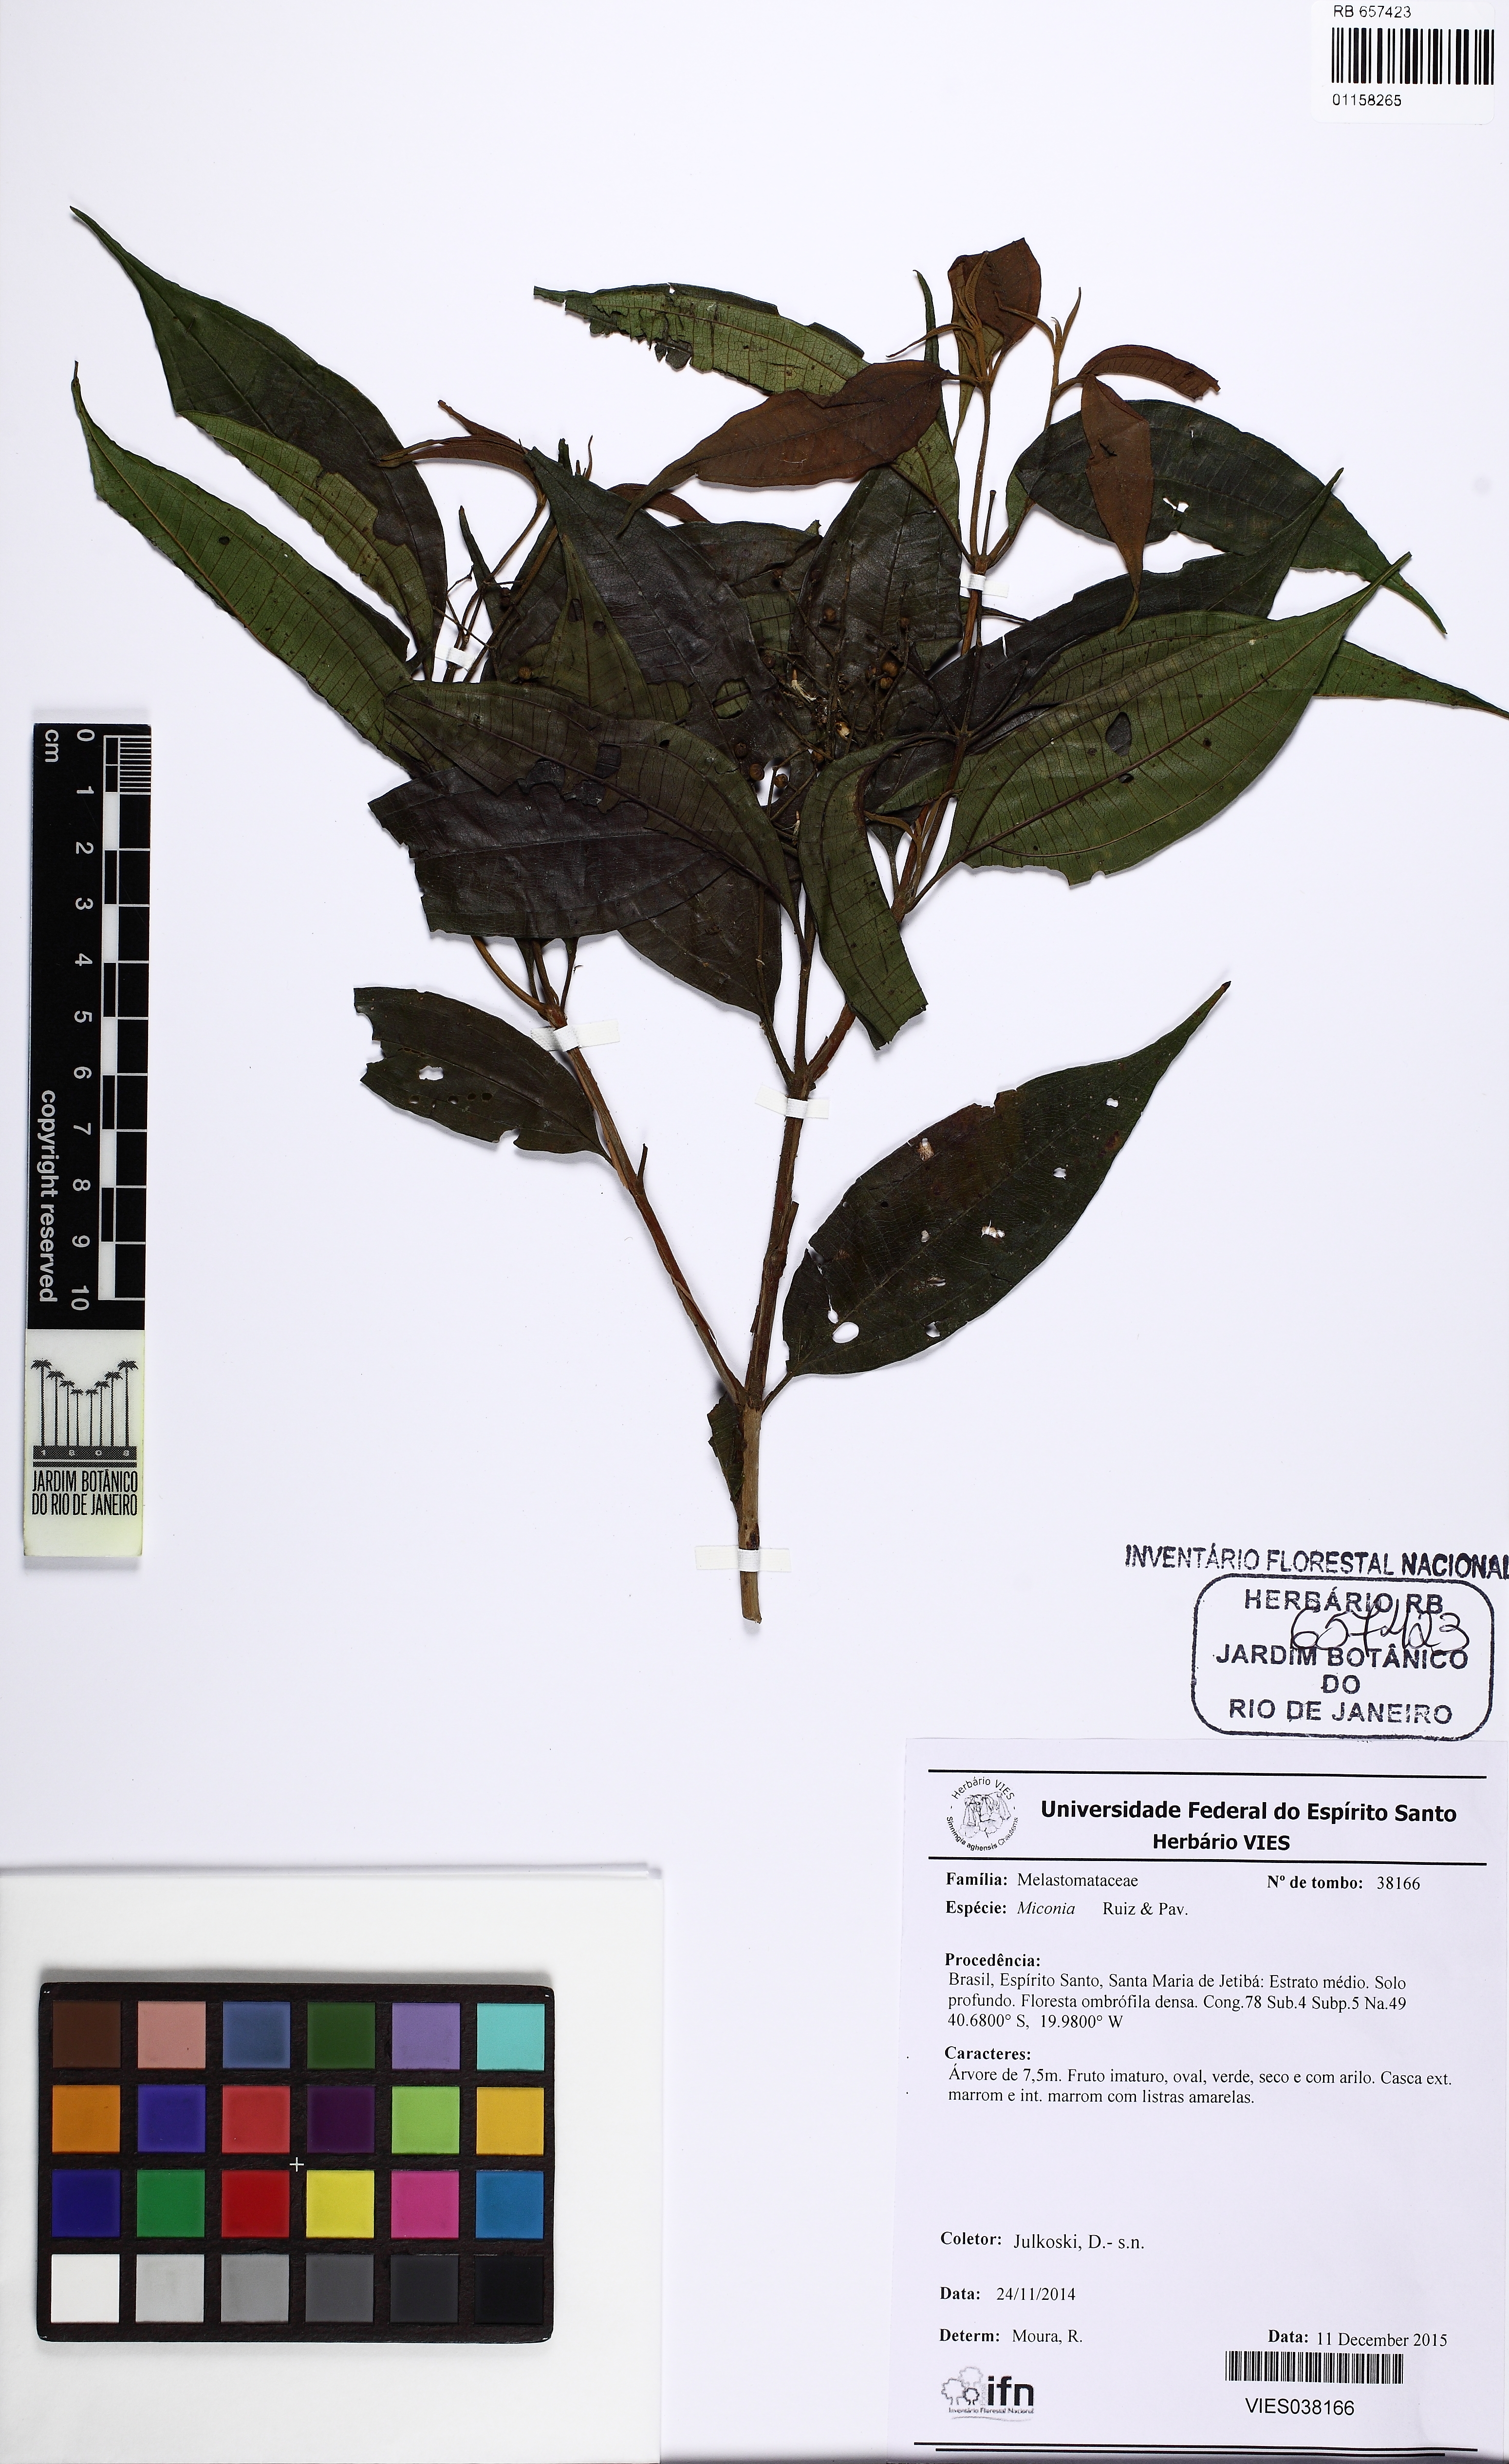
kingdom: Plantae
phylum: Tracheophyta
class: Magnoliopsida
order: Myrtales
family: Melastomataceae
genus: Miconia
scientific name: Miconia
